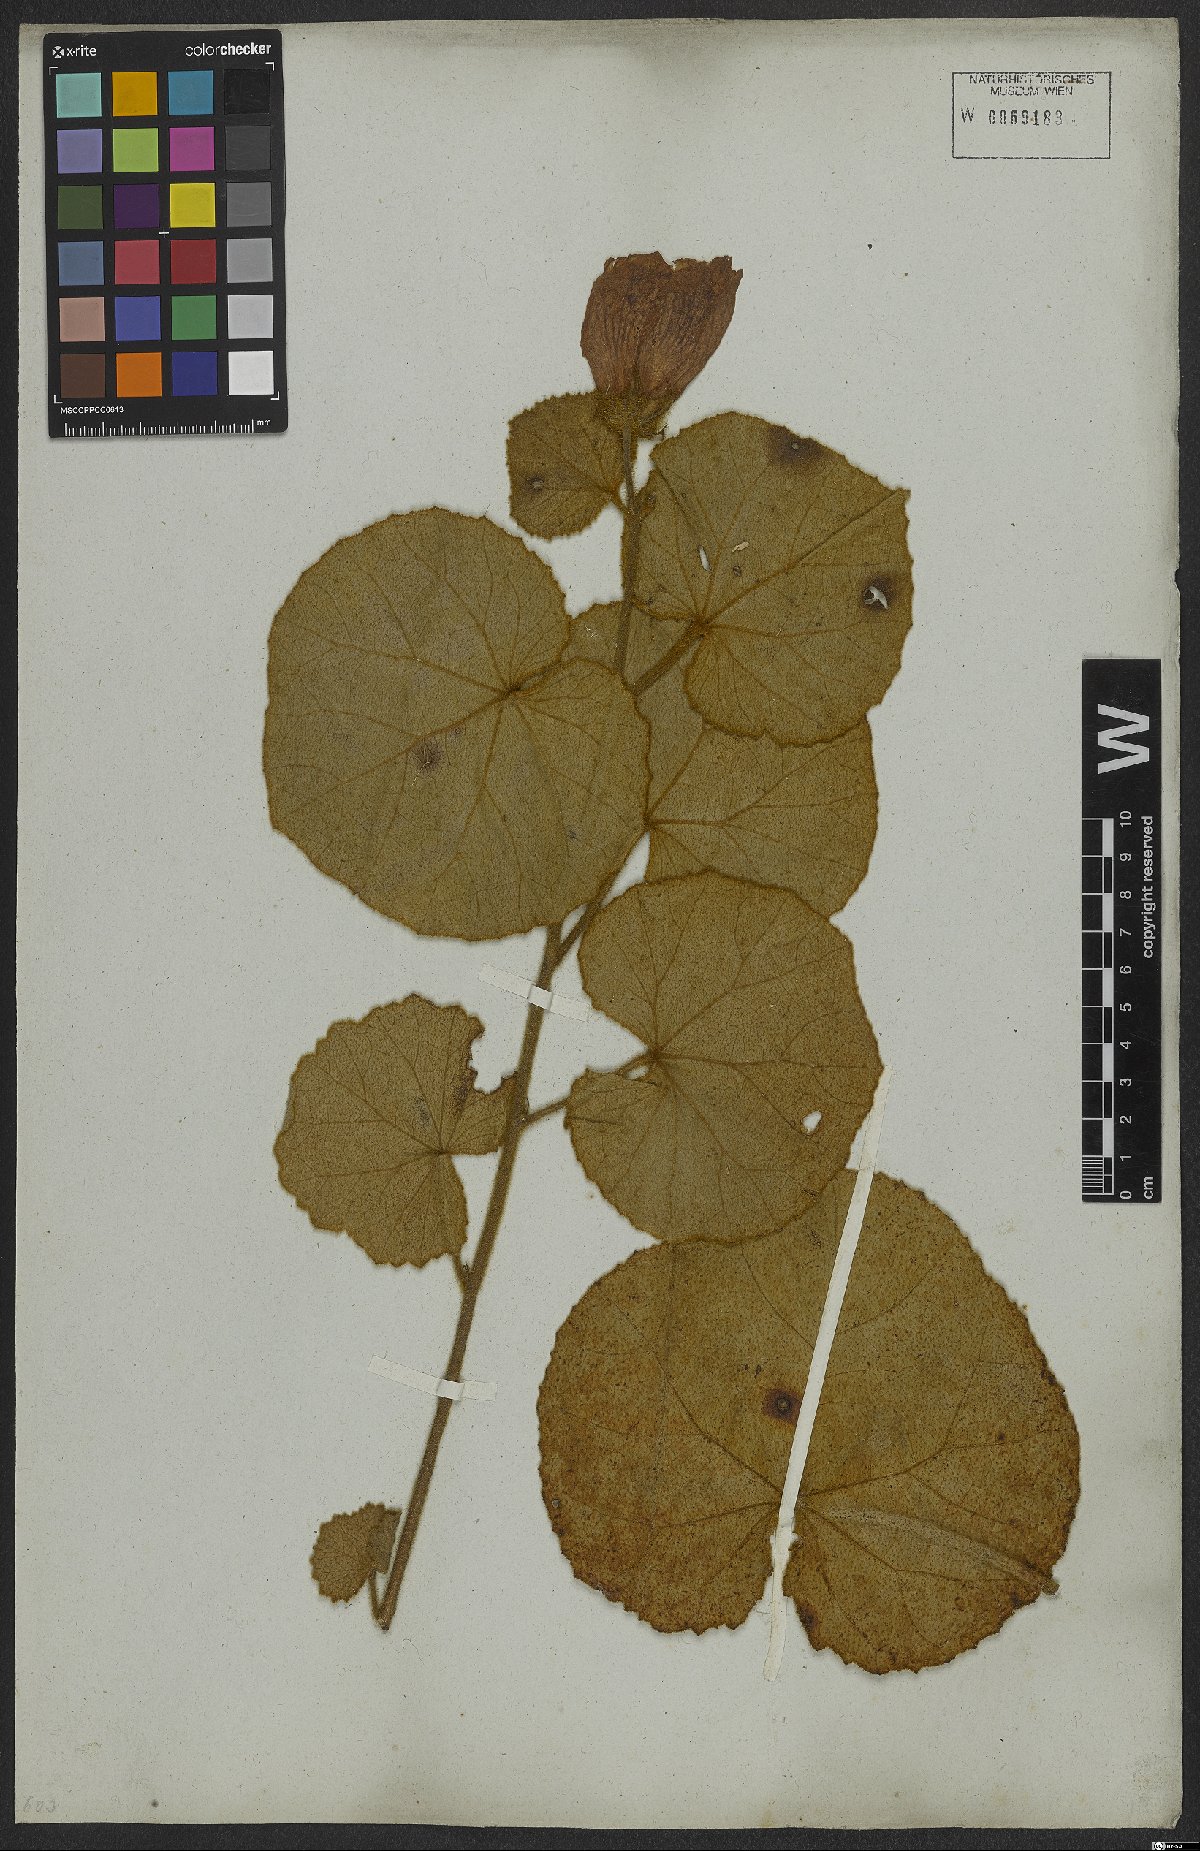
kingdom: Plantae
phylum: Tracheophyta
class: Magnoliopsida
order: Malvales
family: Malvaceae
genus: Hibiscus
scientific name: Hibiscus pohlii
